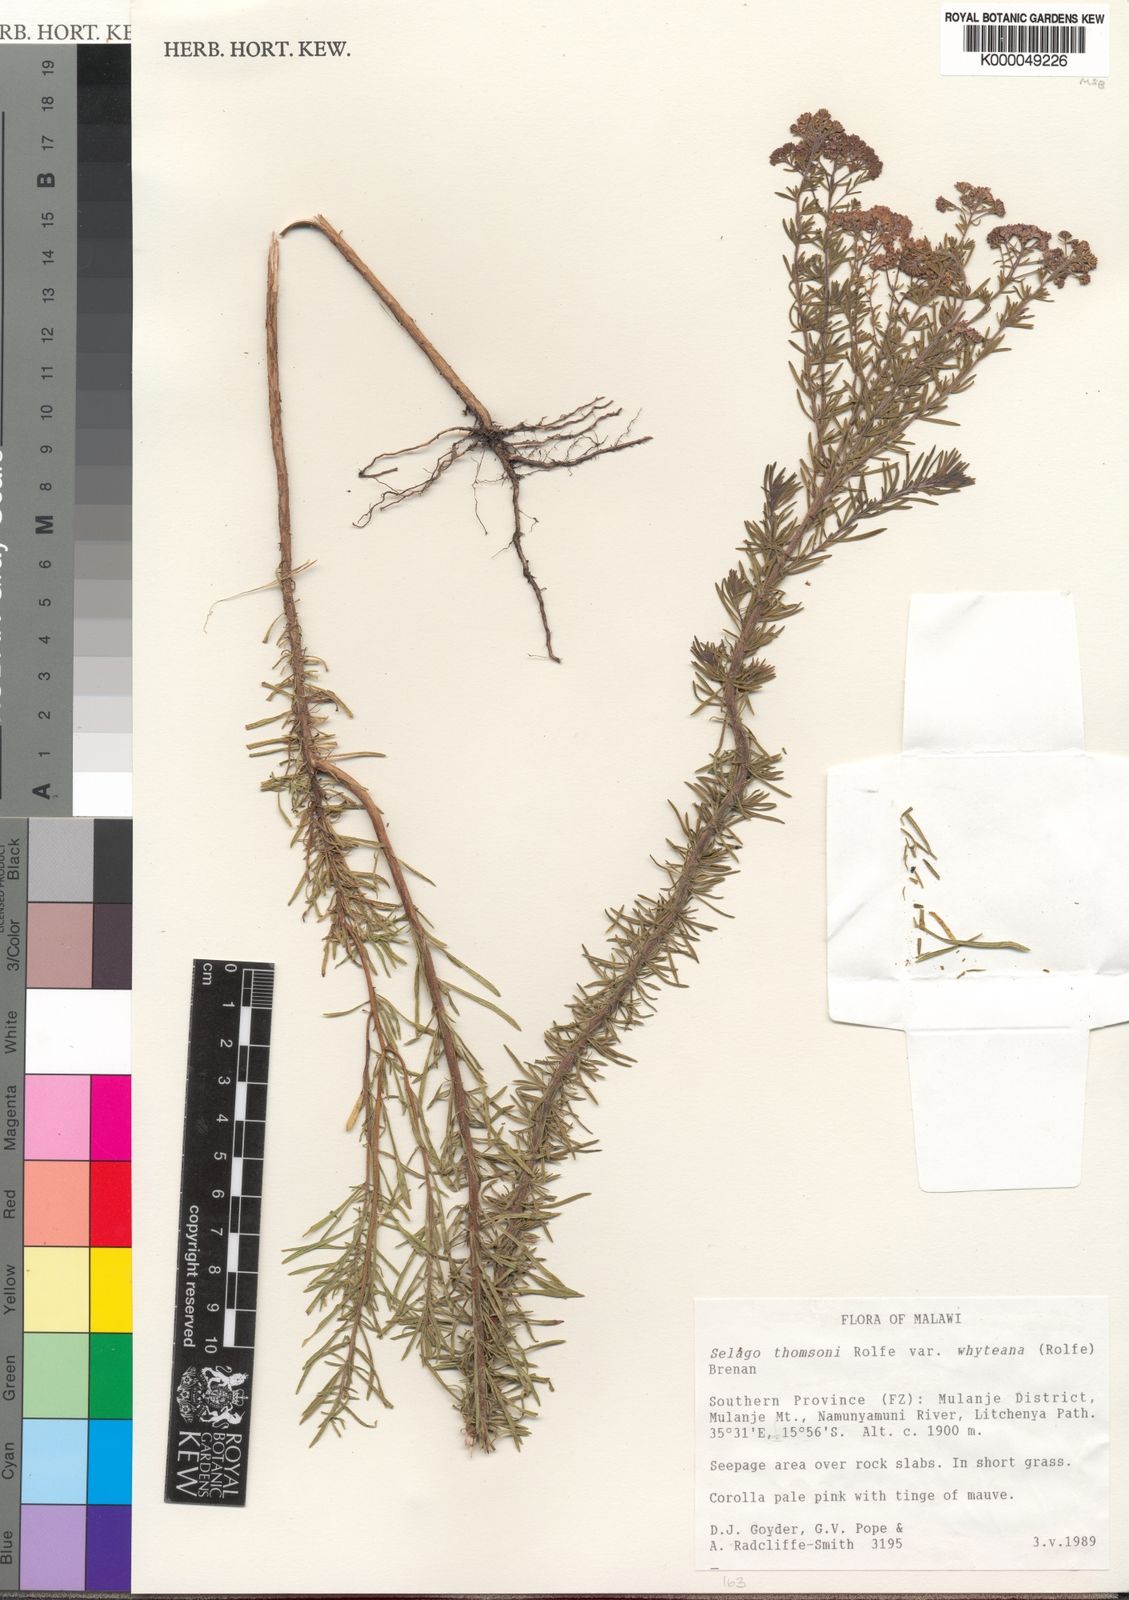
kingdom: Plantae
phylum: Tracheophyta
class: Magnoliopsida
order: Lamiales
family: Scrophulariaceae
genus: Selago
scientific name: Selago thomsonii
